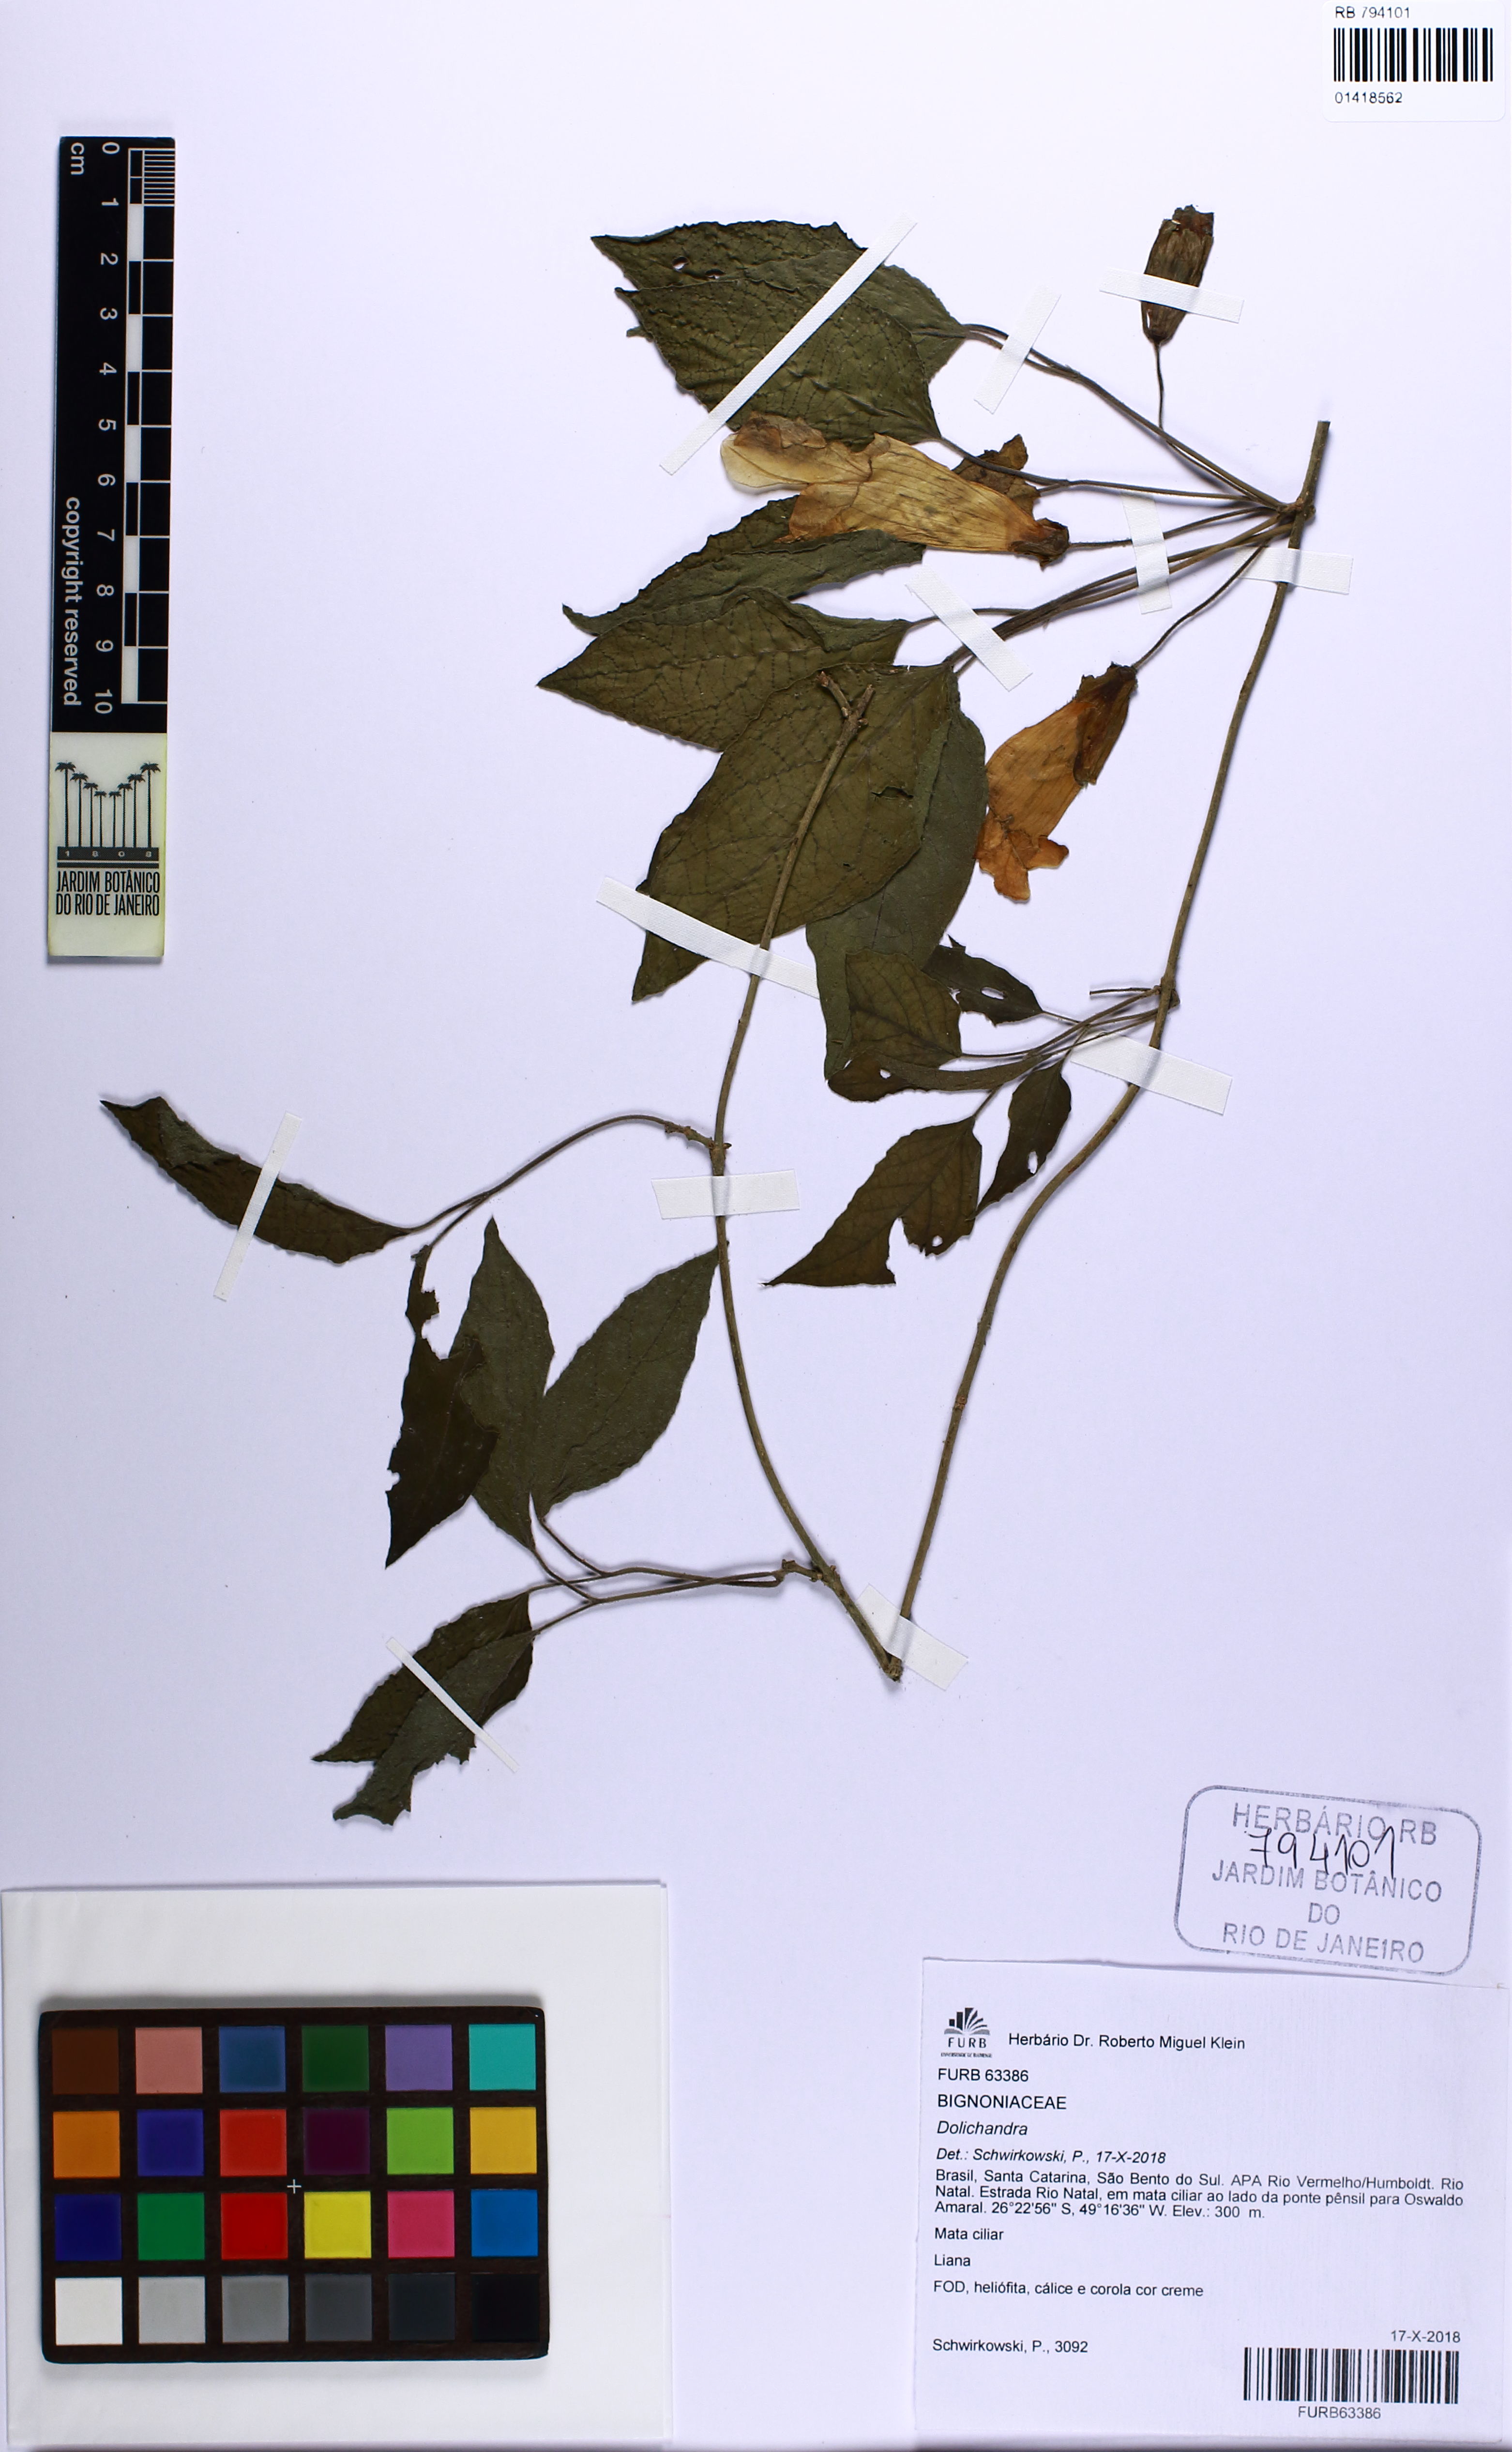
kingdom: Plantae
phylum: Tracheophyta
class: Magnoliopsida
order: Lamiales
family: Bignoniaceae
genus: Dolichandra
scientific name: Dolichandra
